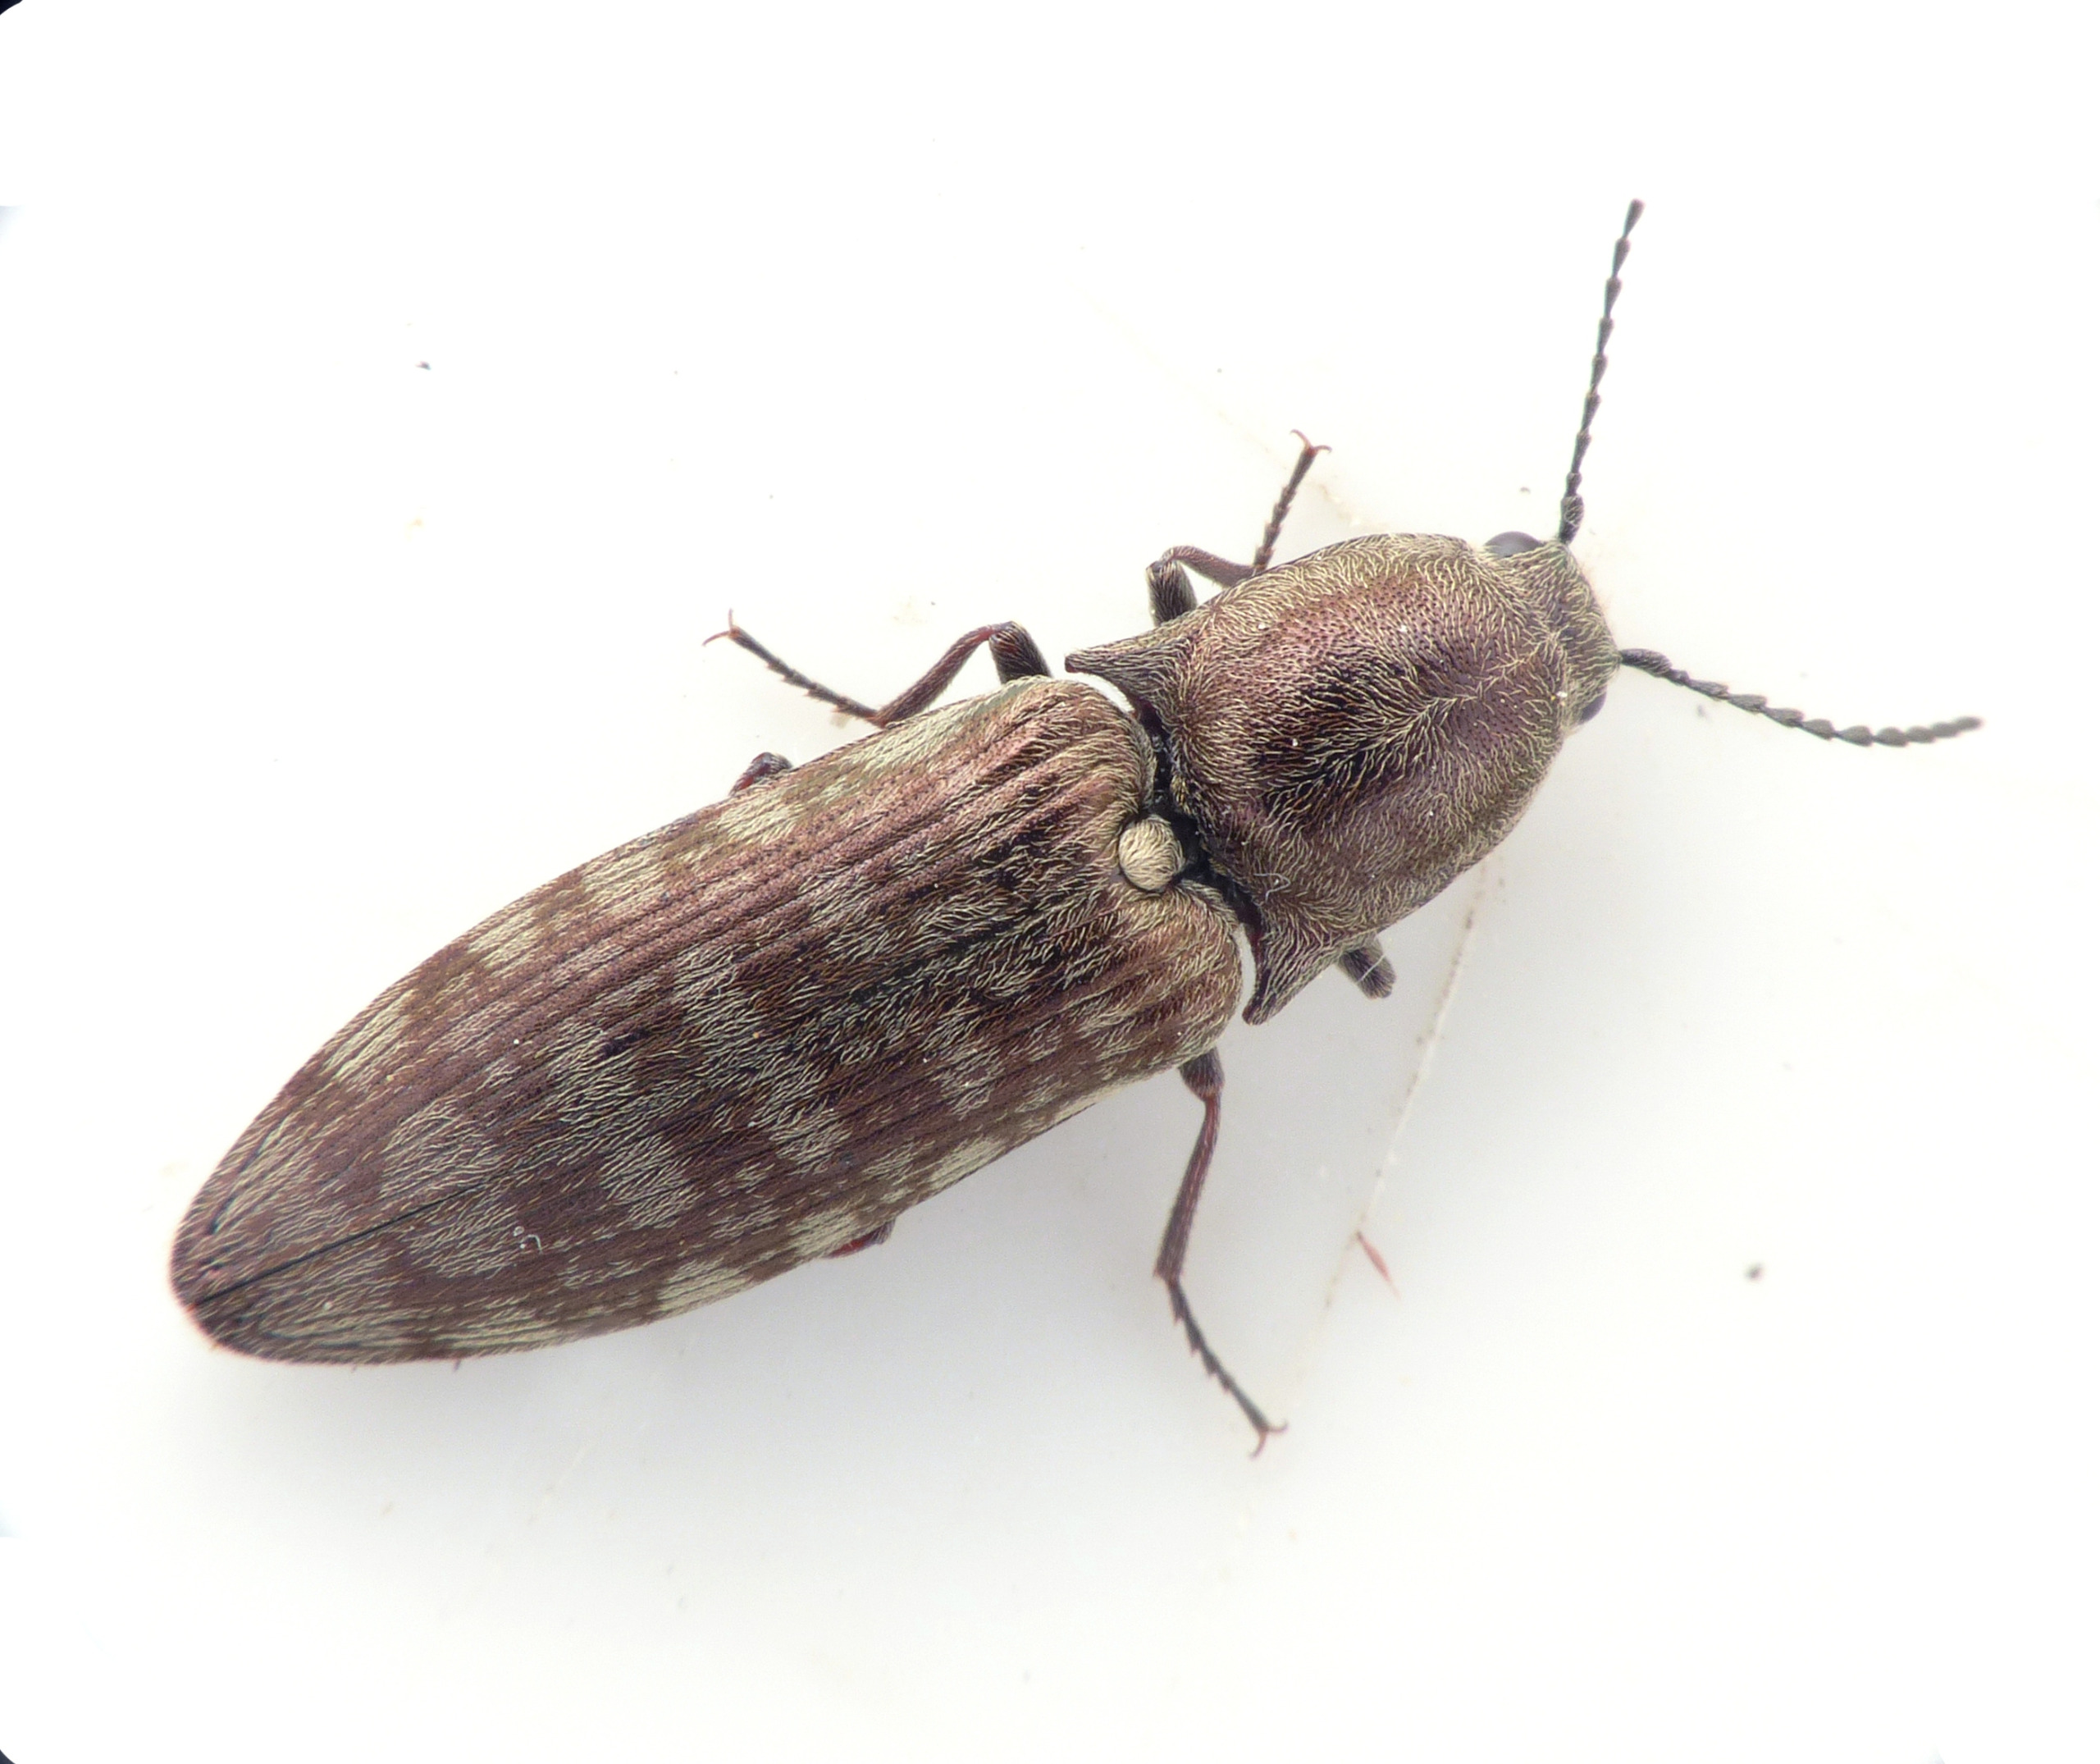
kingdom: Animalia
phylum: Arthropoda
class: Insecta
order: Coleoptera
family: Elateridae
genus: Actenicerus
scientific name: Actenicerus sjaelandicus
